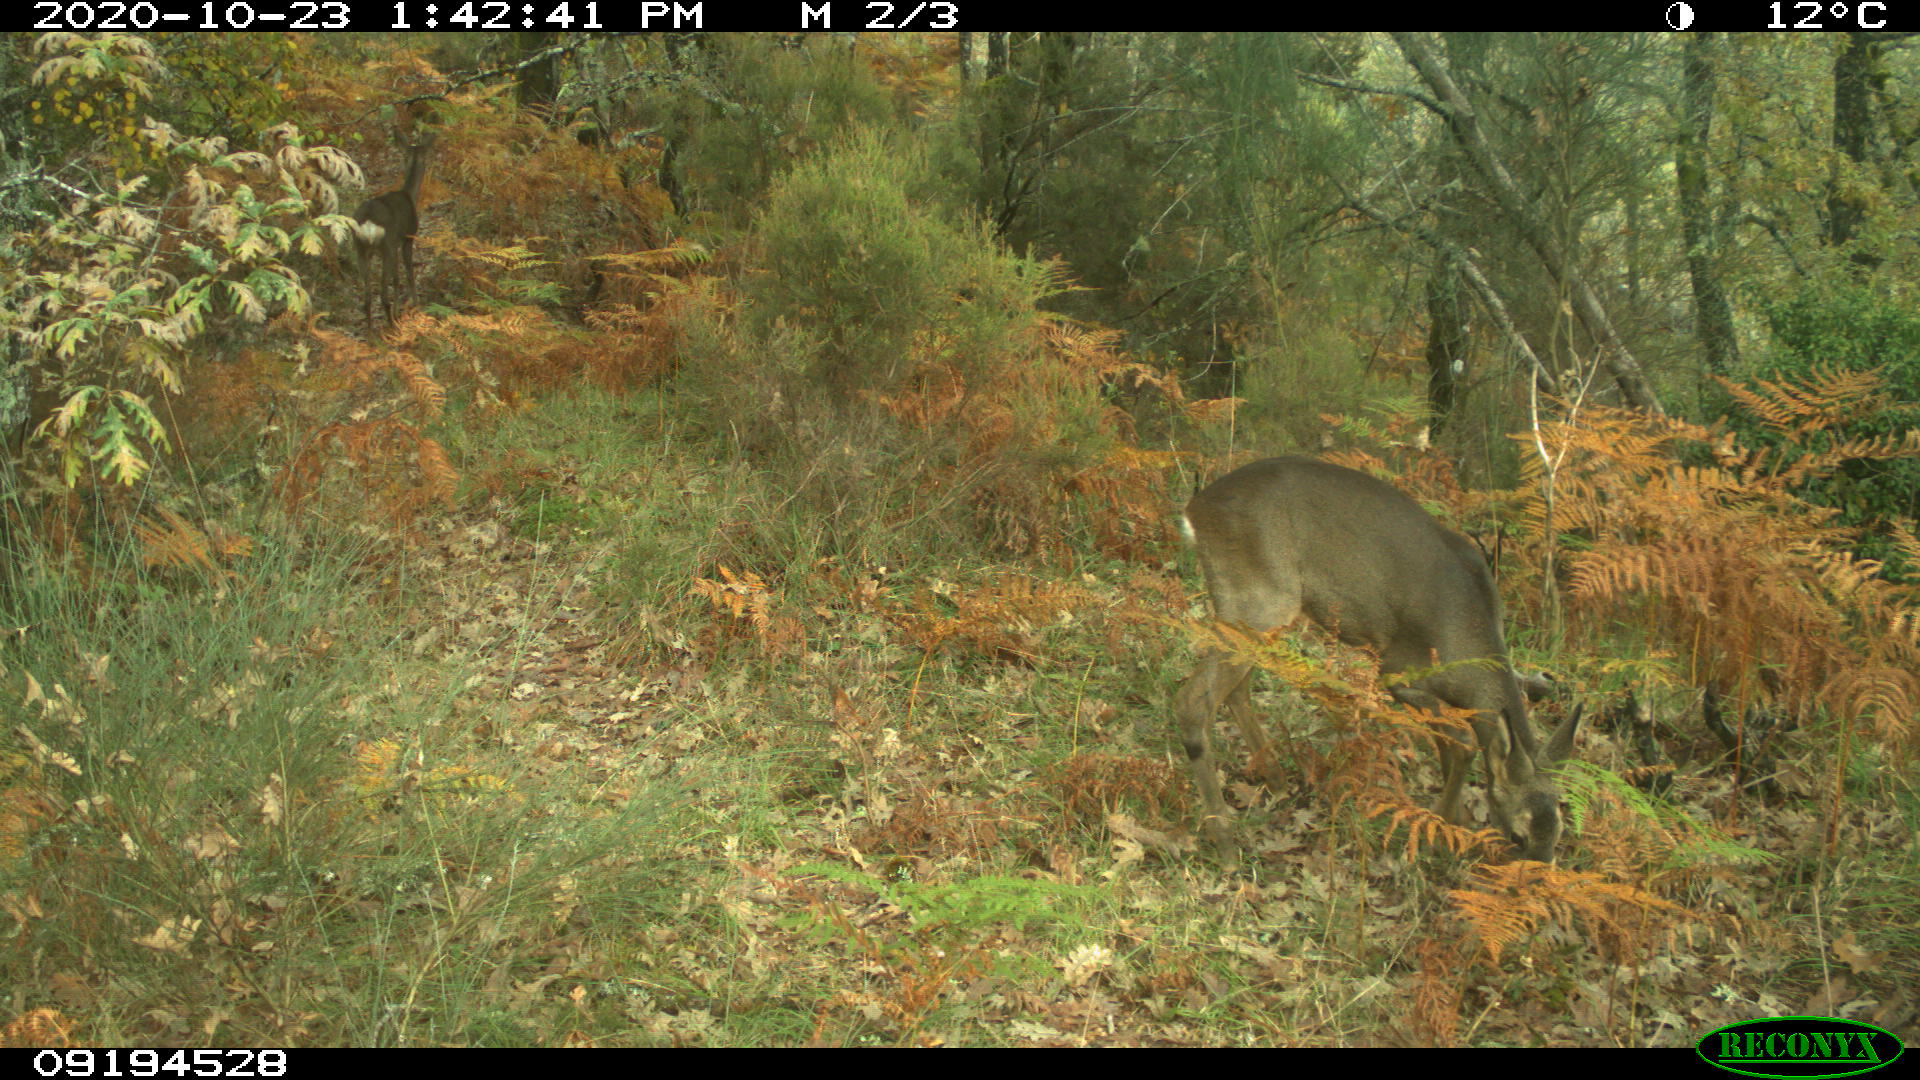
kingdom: Animalia
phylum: Chordata
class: Mammalia
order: Artiodactyla
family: Cervidae
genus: Capreolus
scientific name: Capreolus capreolus
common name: Western roe deer
